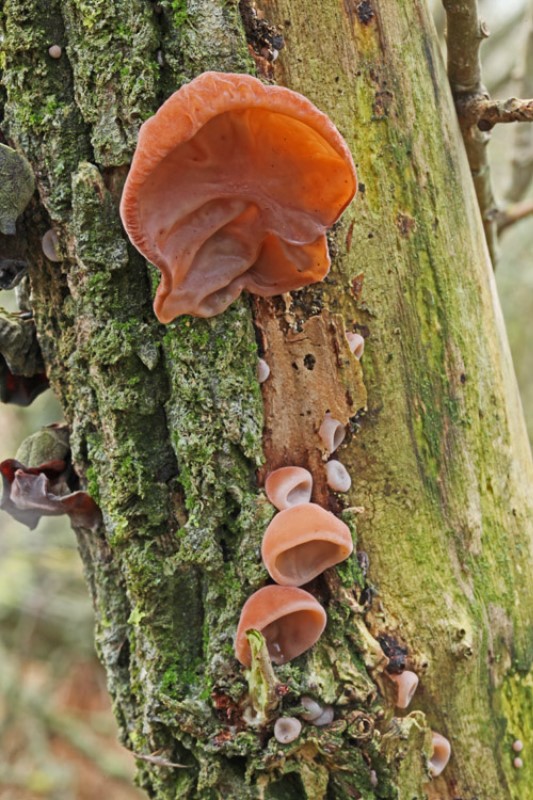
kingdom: Fungi
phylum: Basidiomycota
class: Agaricomycetes
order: Auriculariales
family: Auriculariaceae
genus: Auricularia
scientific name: Auricularia auricula-judae
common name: almindelig judasøre
